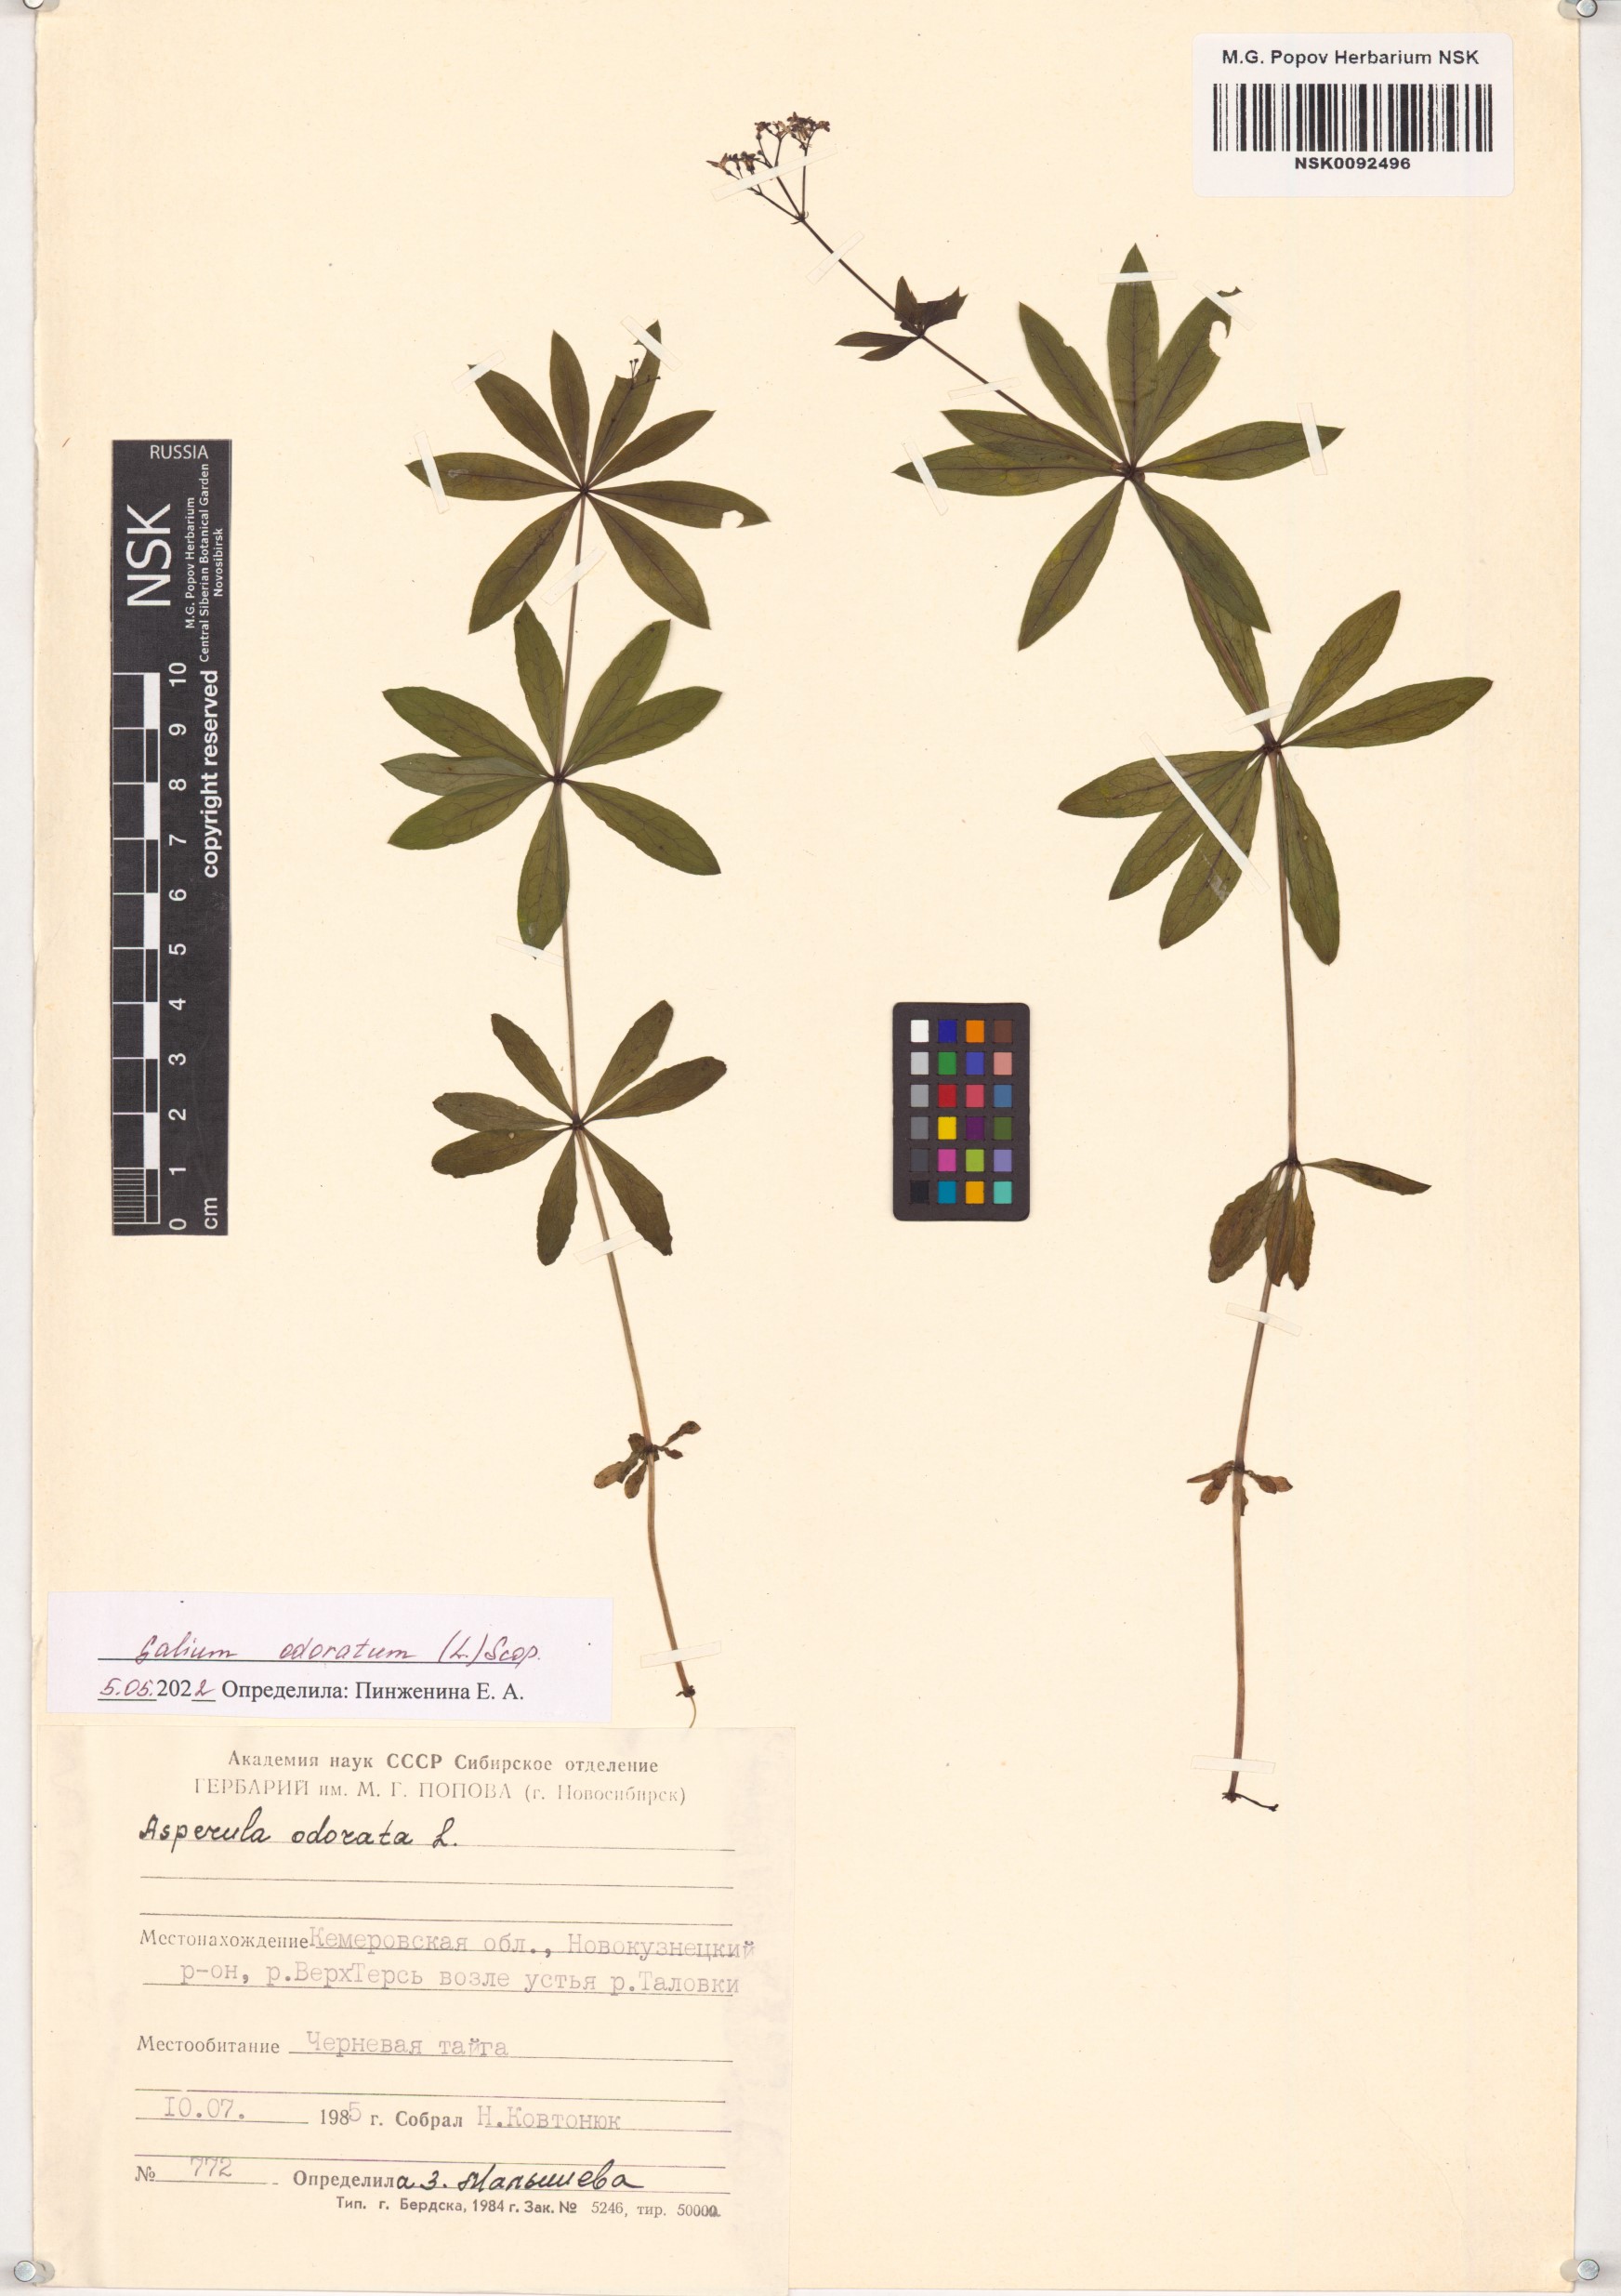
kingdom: Plantae
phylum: Tracheophyta
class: Magnoliopsida
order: Gentianales
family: Rubiaceae
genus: Galium
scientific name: Galium odoratum
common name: Sweet woodruff
